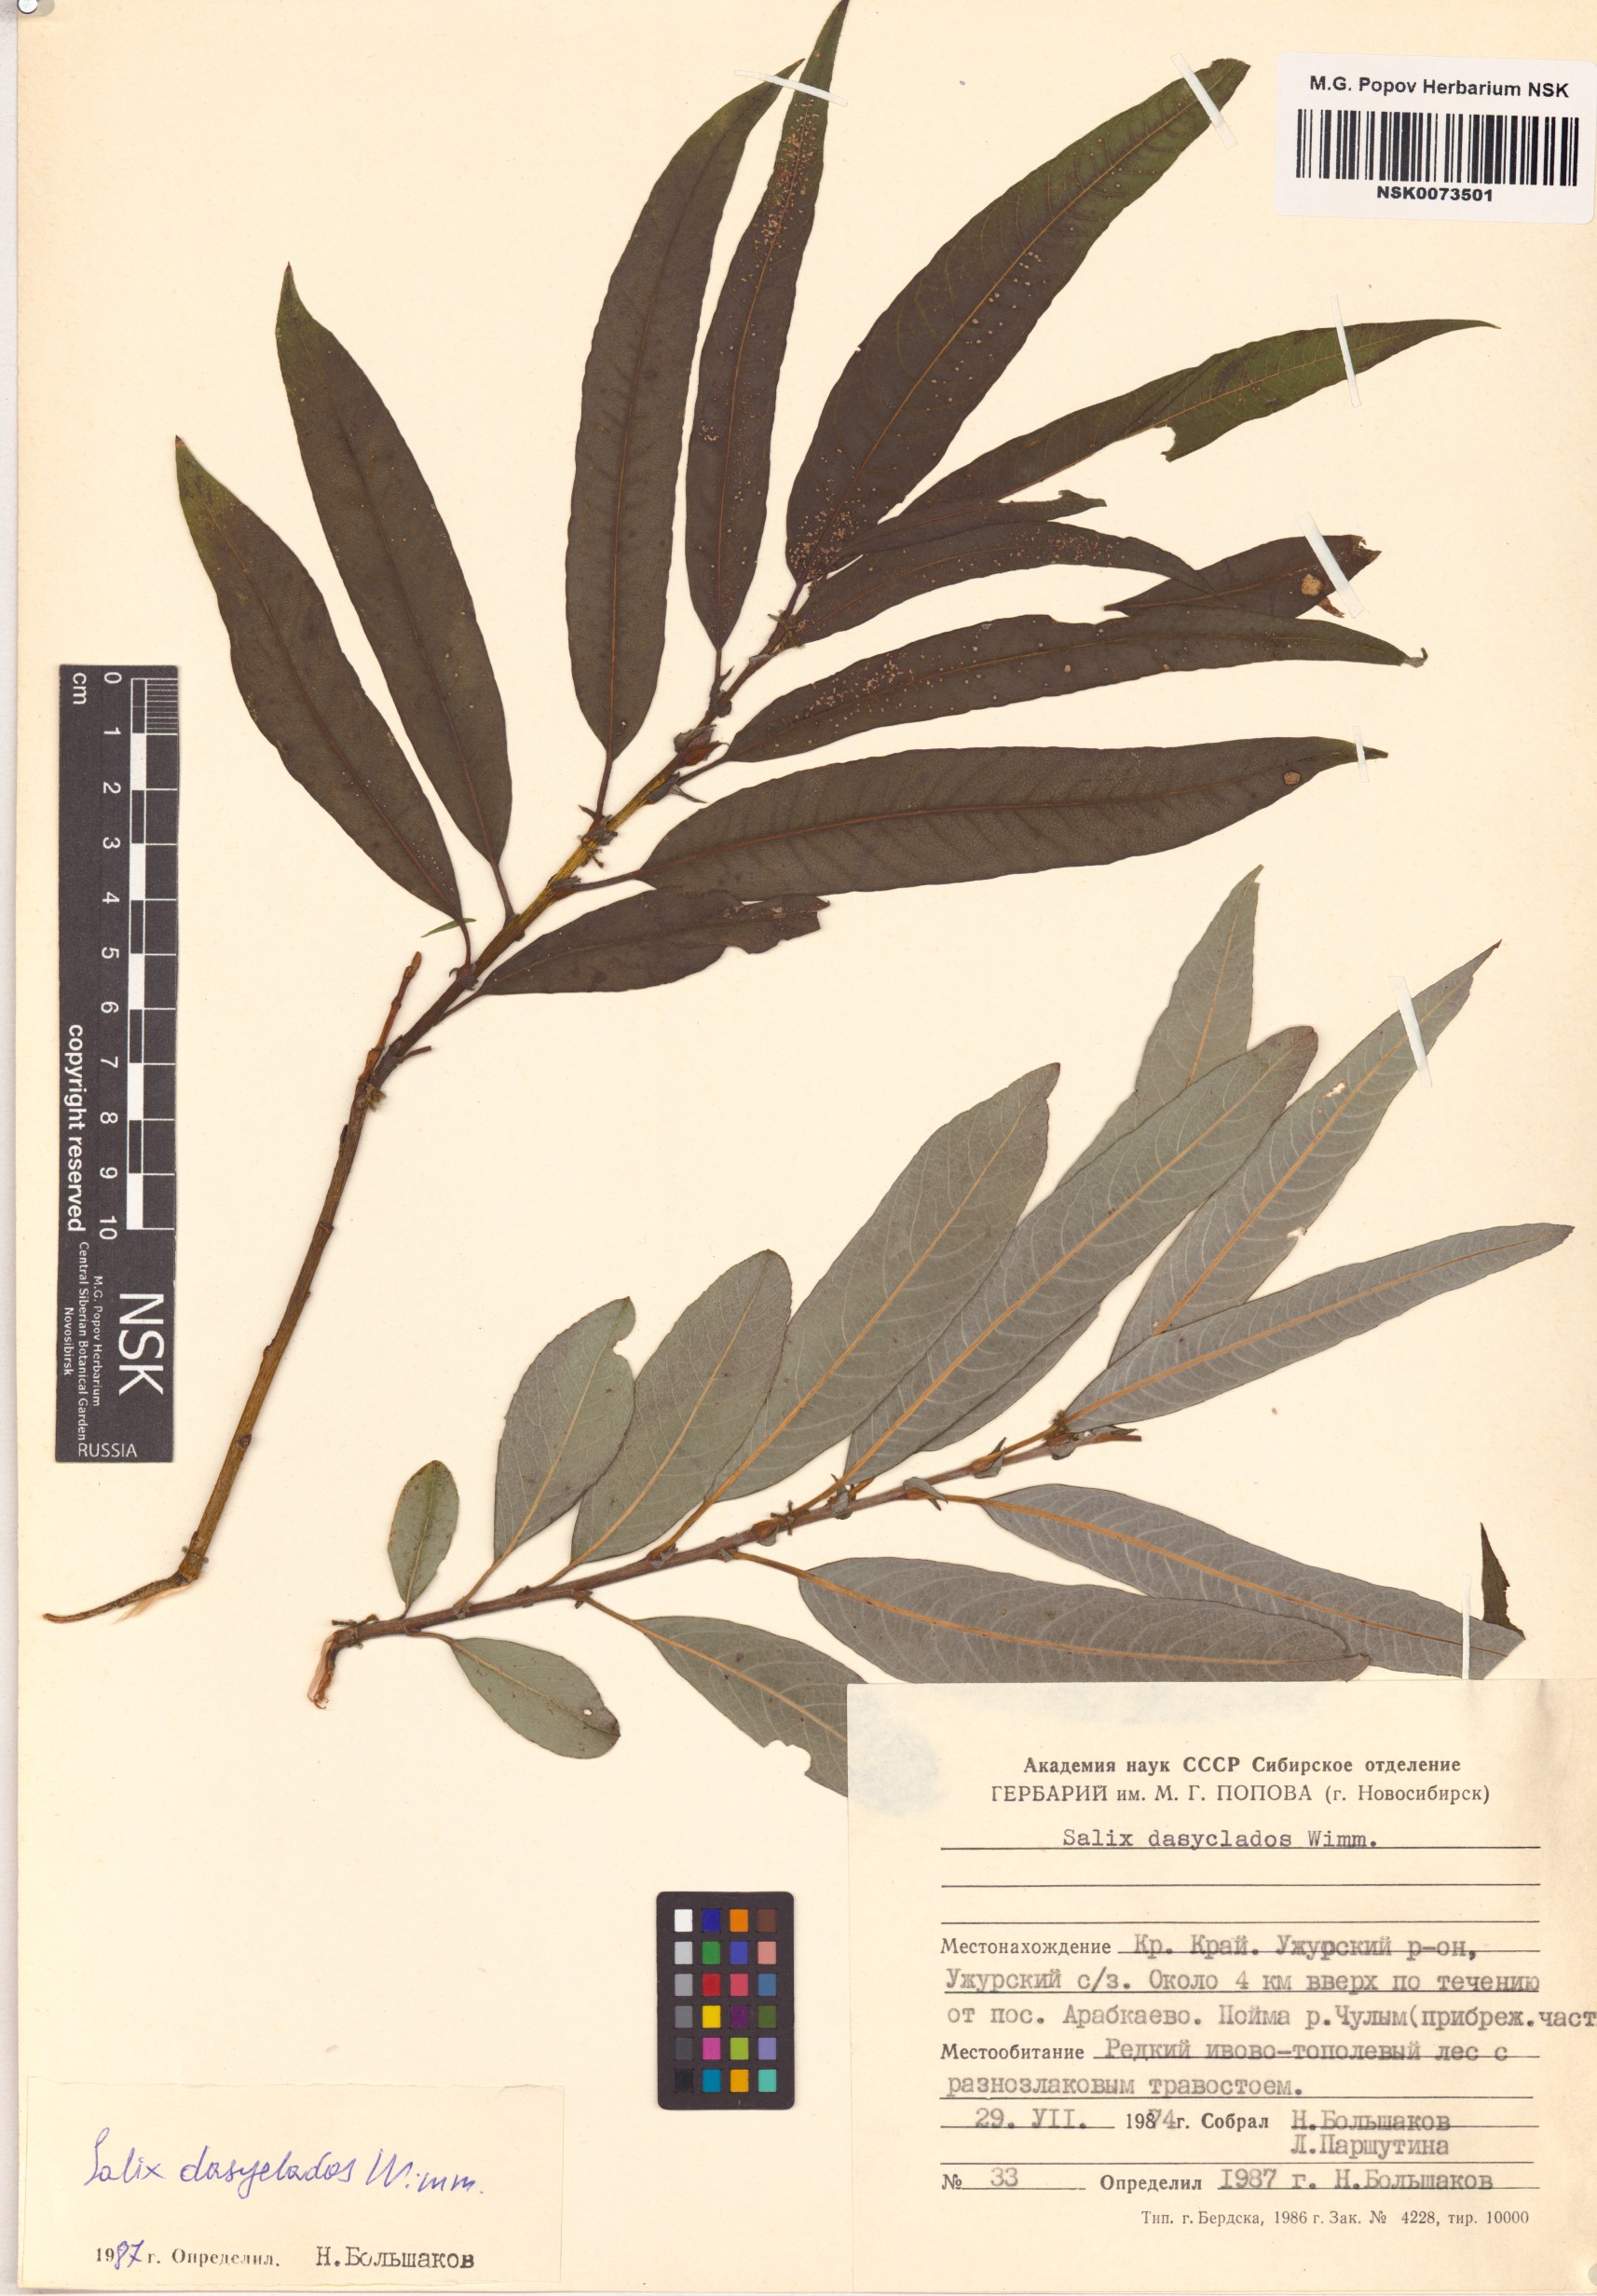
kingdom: Plantae
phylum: Tracheophyta
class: Magnoliopsida
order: Malpighiales
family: Salicaceae
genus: Salix
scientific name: Salix gmelinii
